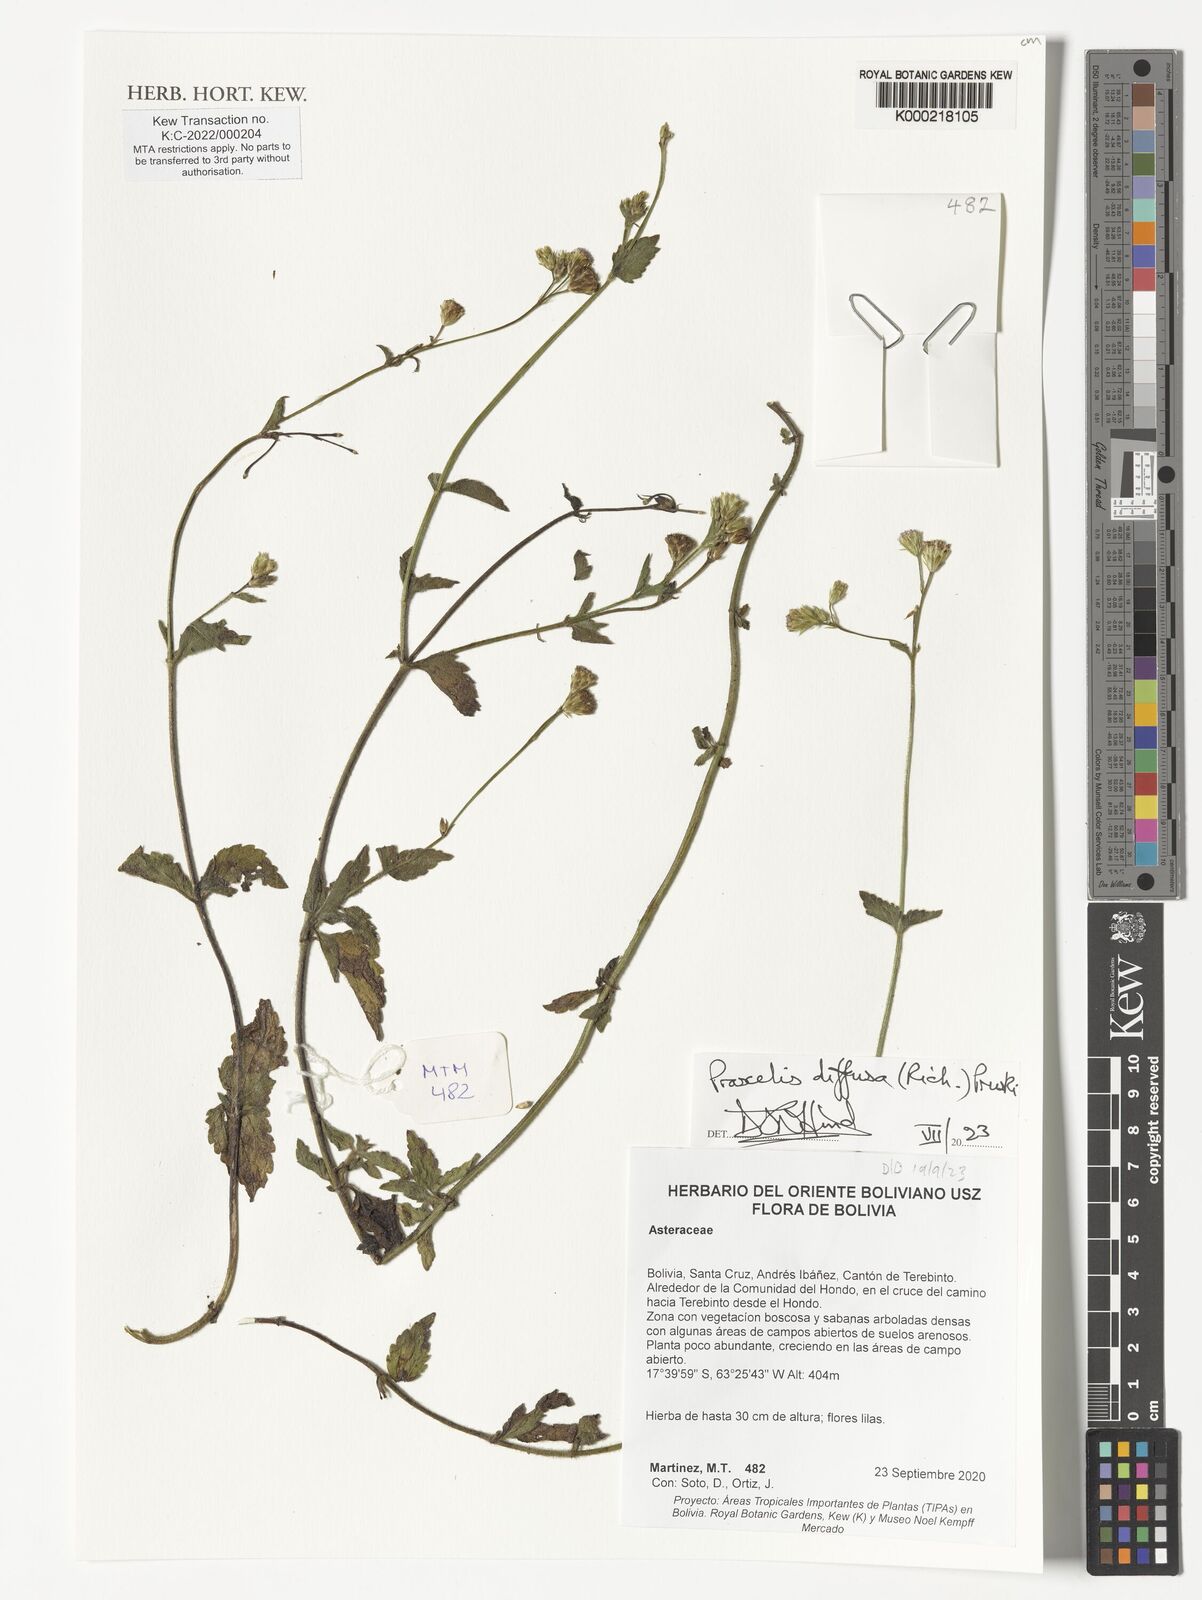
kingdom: Plantae
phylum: Tracheophyta
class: Magnoliopsida
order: Asterales
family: Asteraceae
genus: Praxelis
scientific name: Praxelis diffusa
